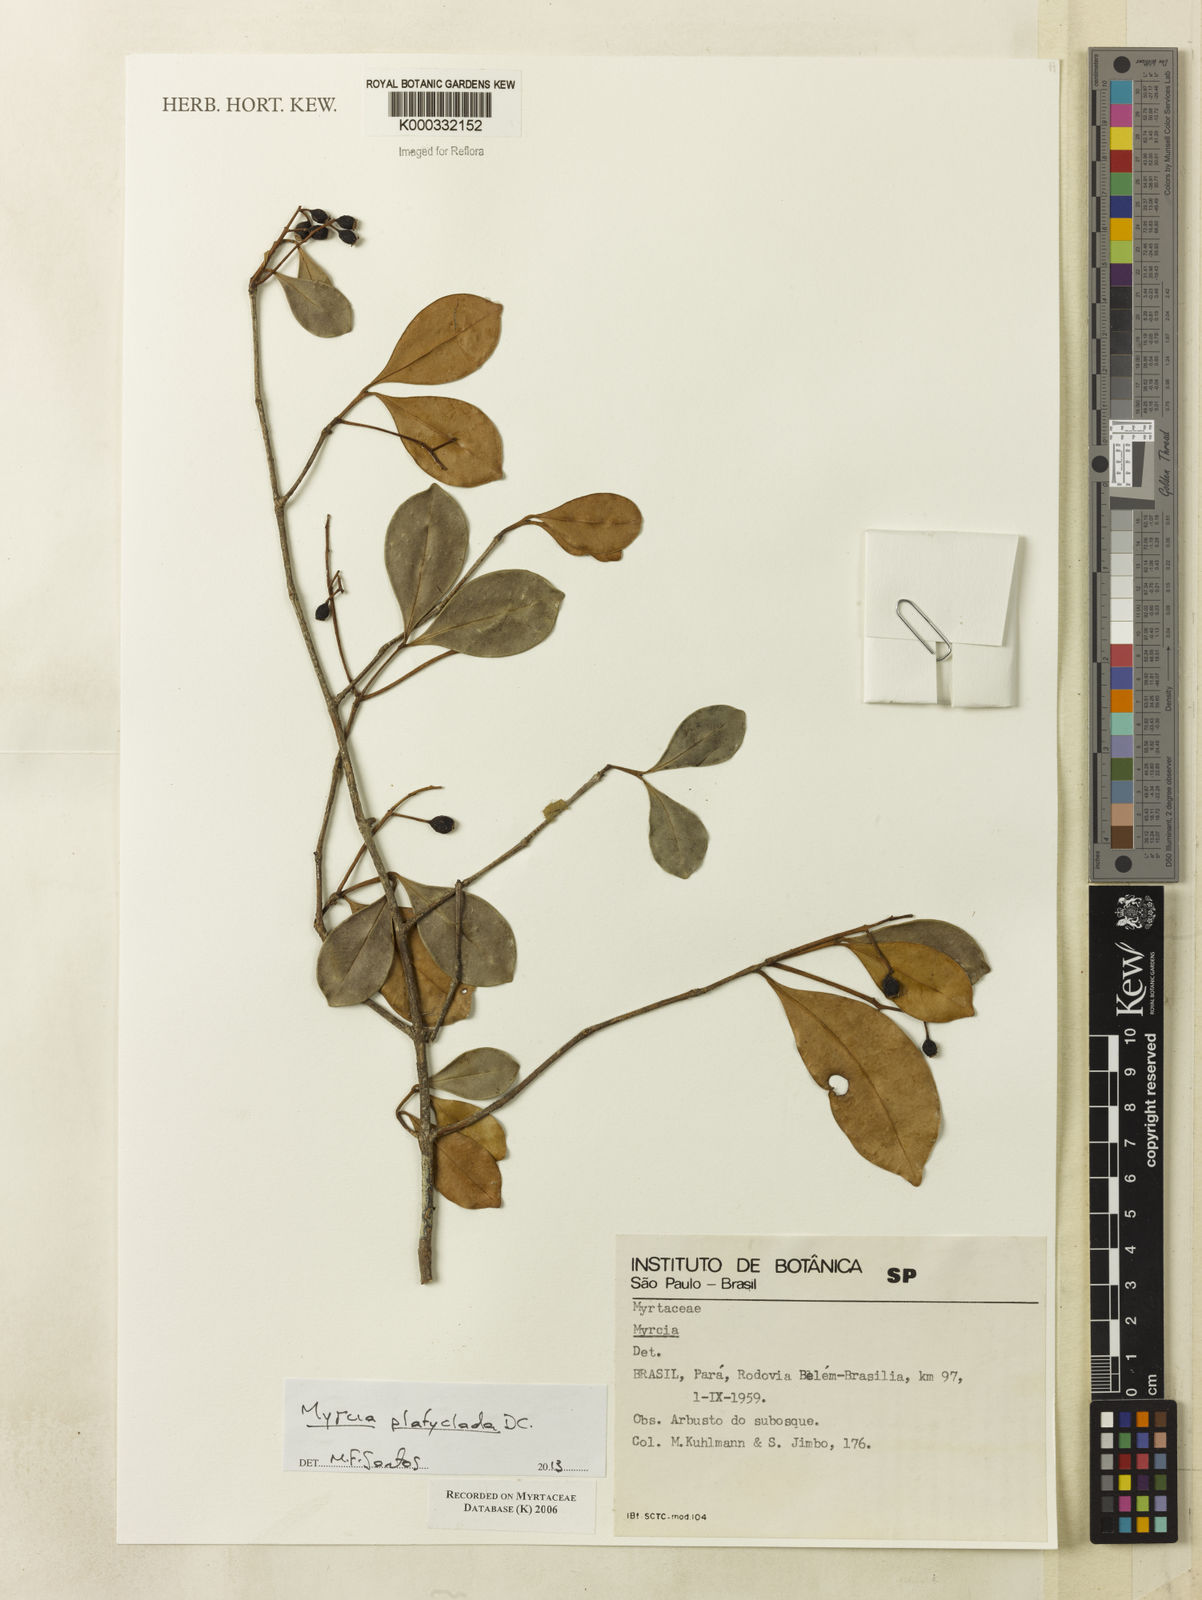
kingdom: Plantae
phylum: Tracheophyta
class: Magnoliopsida
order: Myrtales
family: Myrtaceae
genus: Myrcia
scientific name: Myrcia
